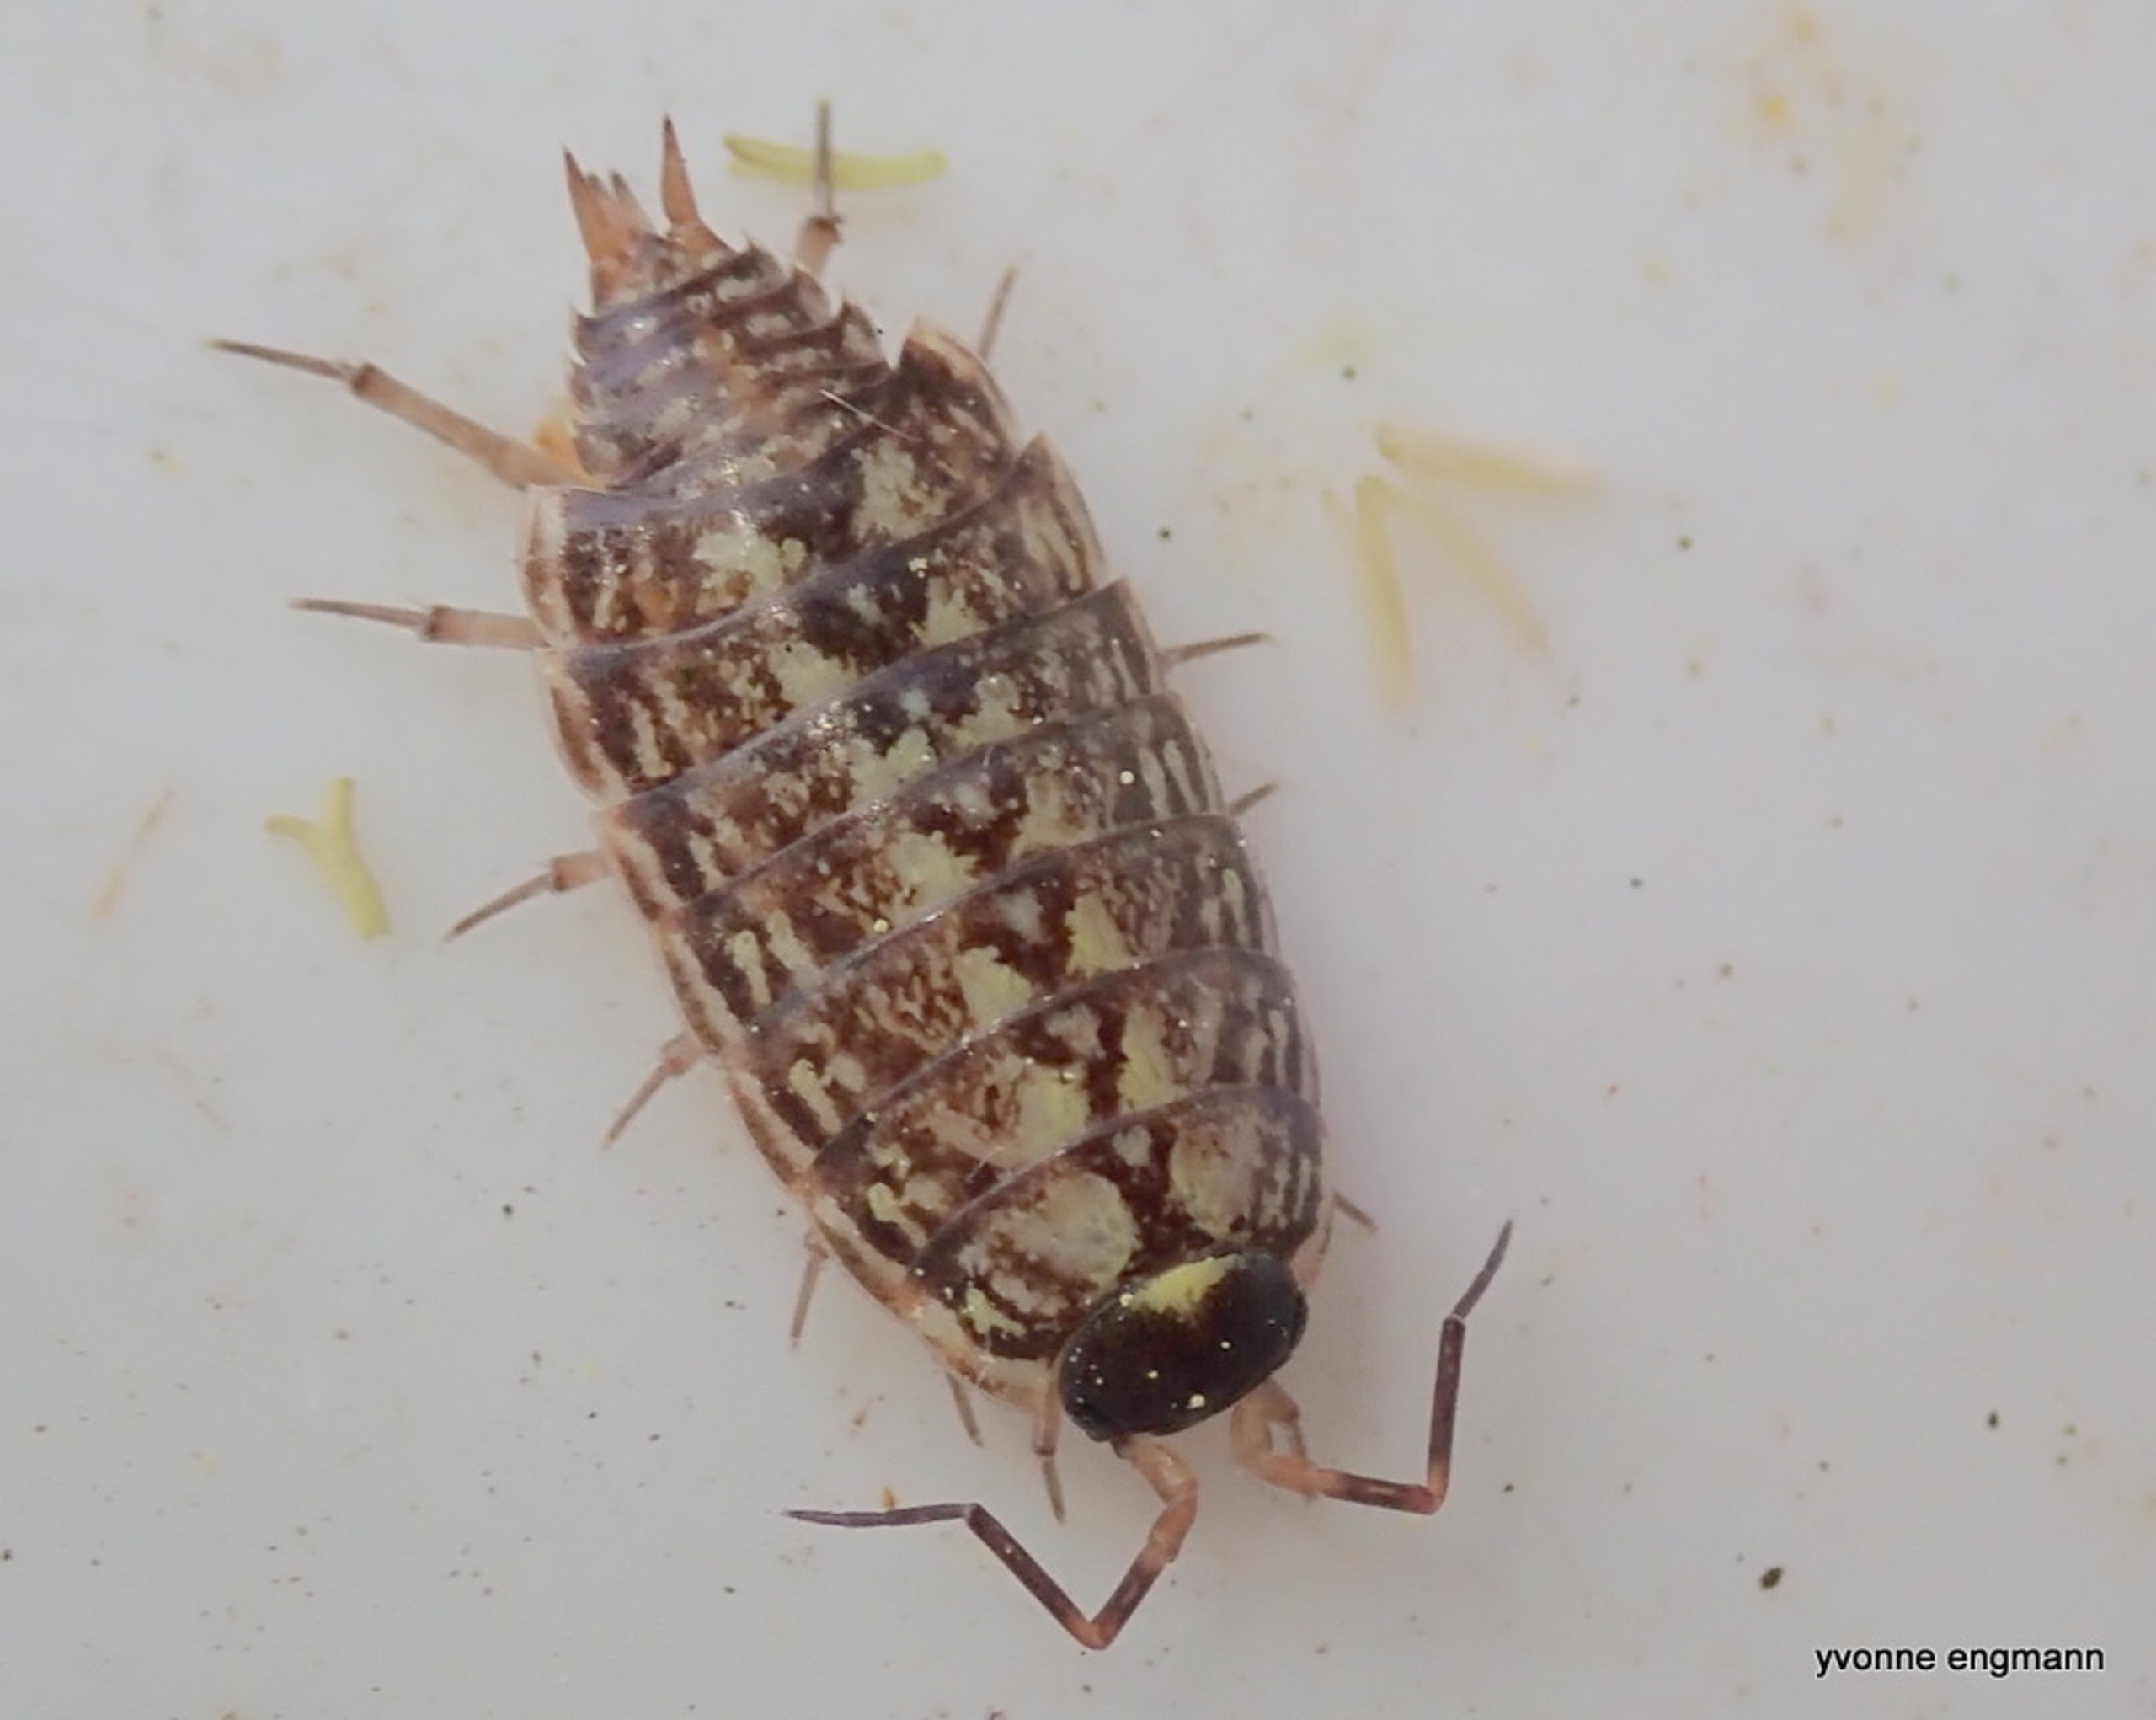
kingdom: Animalia
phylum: Arthropoda
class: Malacostraca
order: Isopoda
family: Philosciidae
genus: Philoscia
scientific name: Philoscia muscorum
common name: Langbenet bænkebider
